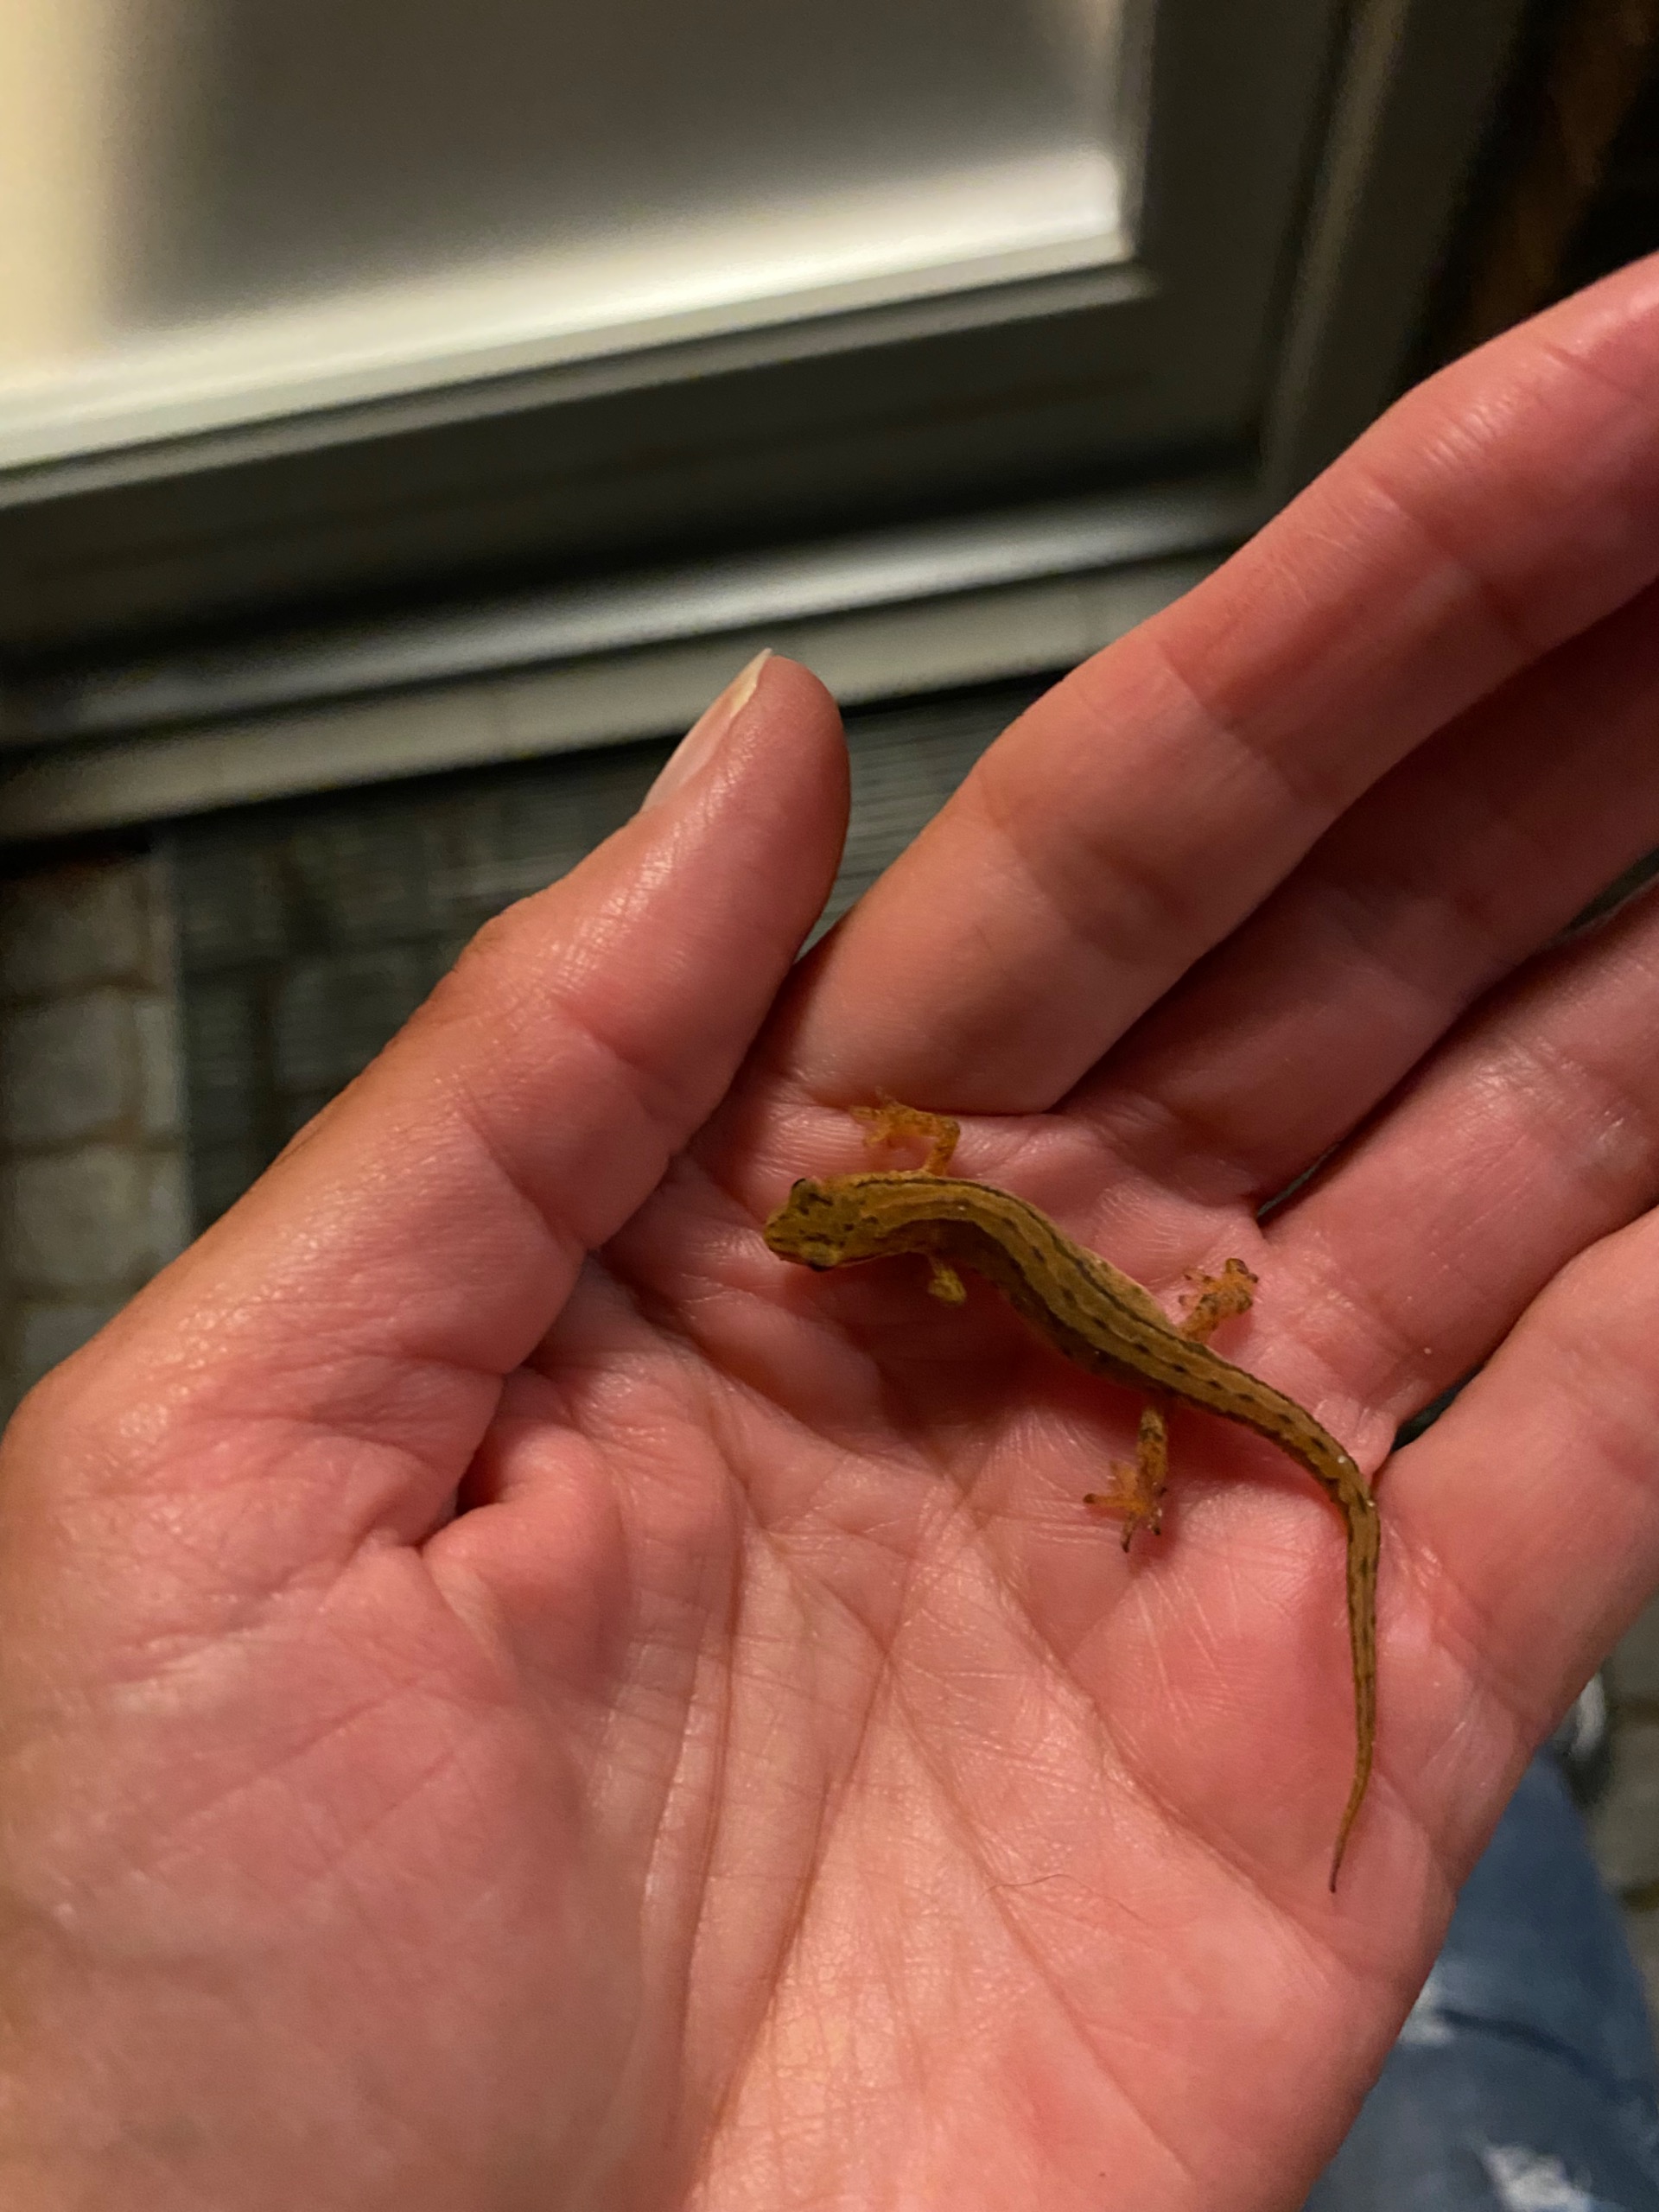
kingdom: Animalia
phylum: Chordata
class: Amphibia
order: Caudata
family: Salamandridae
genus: Lissotriton
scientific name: Lissotriton vulgaris
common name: Lille vandsalamander
